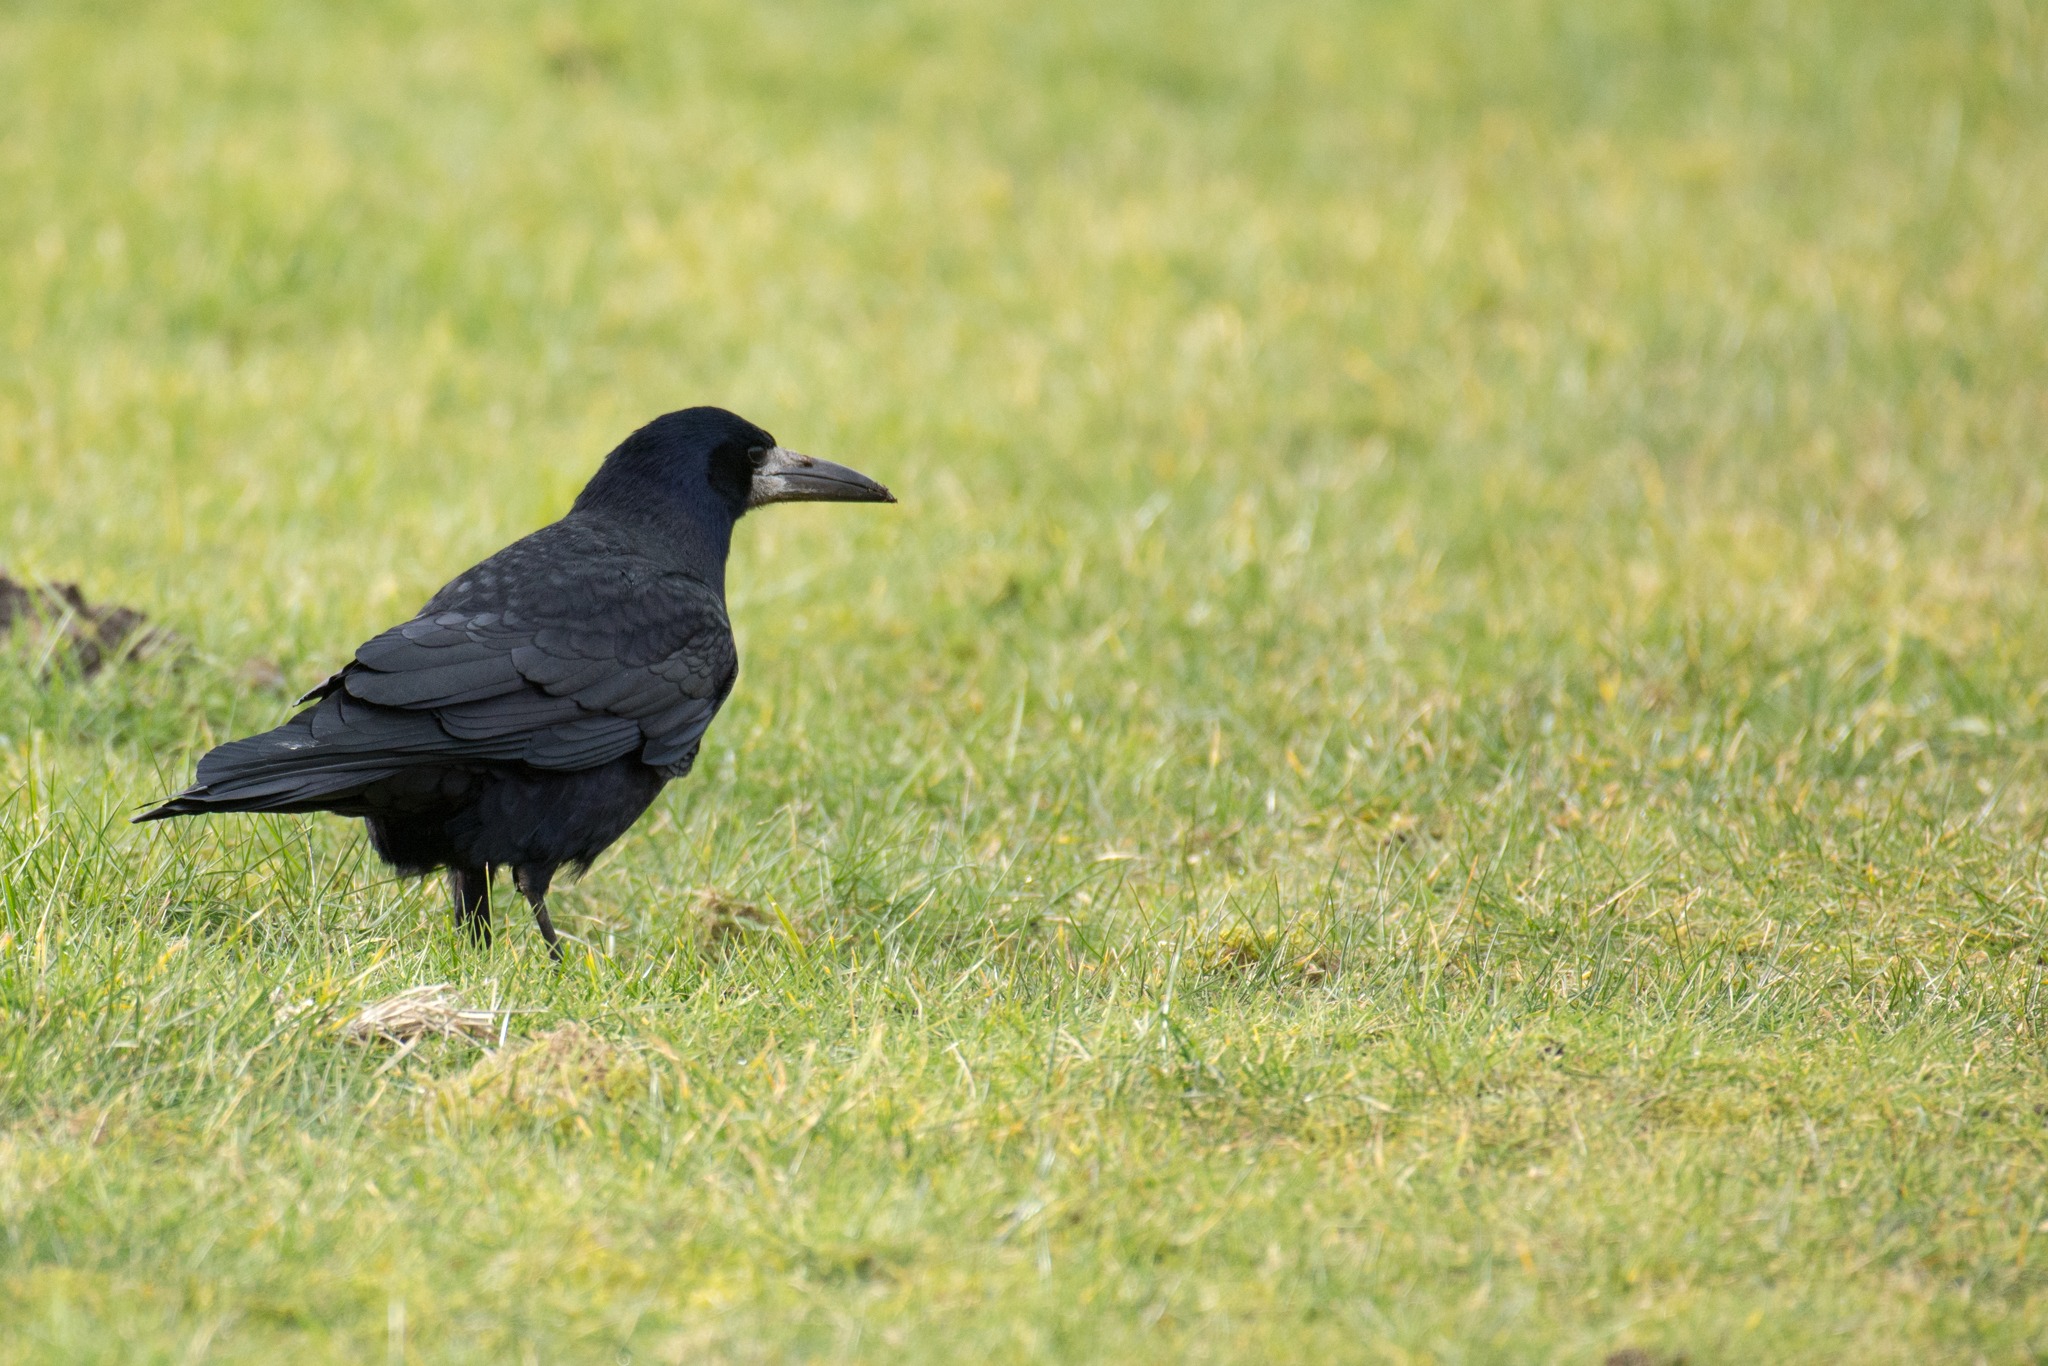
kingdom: Animalia
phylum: Chordata
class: Aves
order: Passeriformes
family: Corvidae
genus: Corvus
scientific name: Corvus frugilegus
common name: Råge
